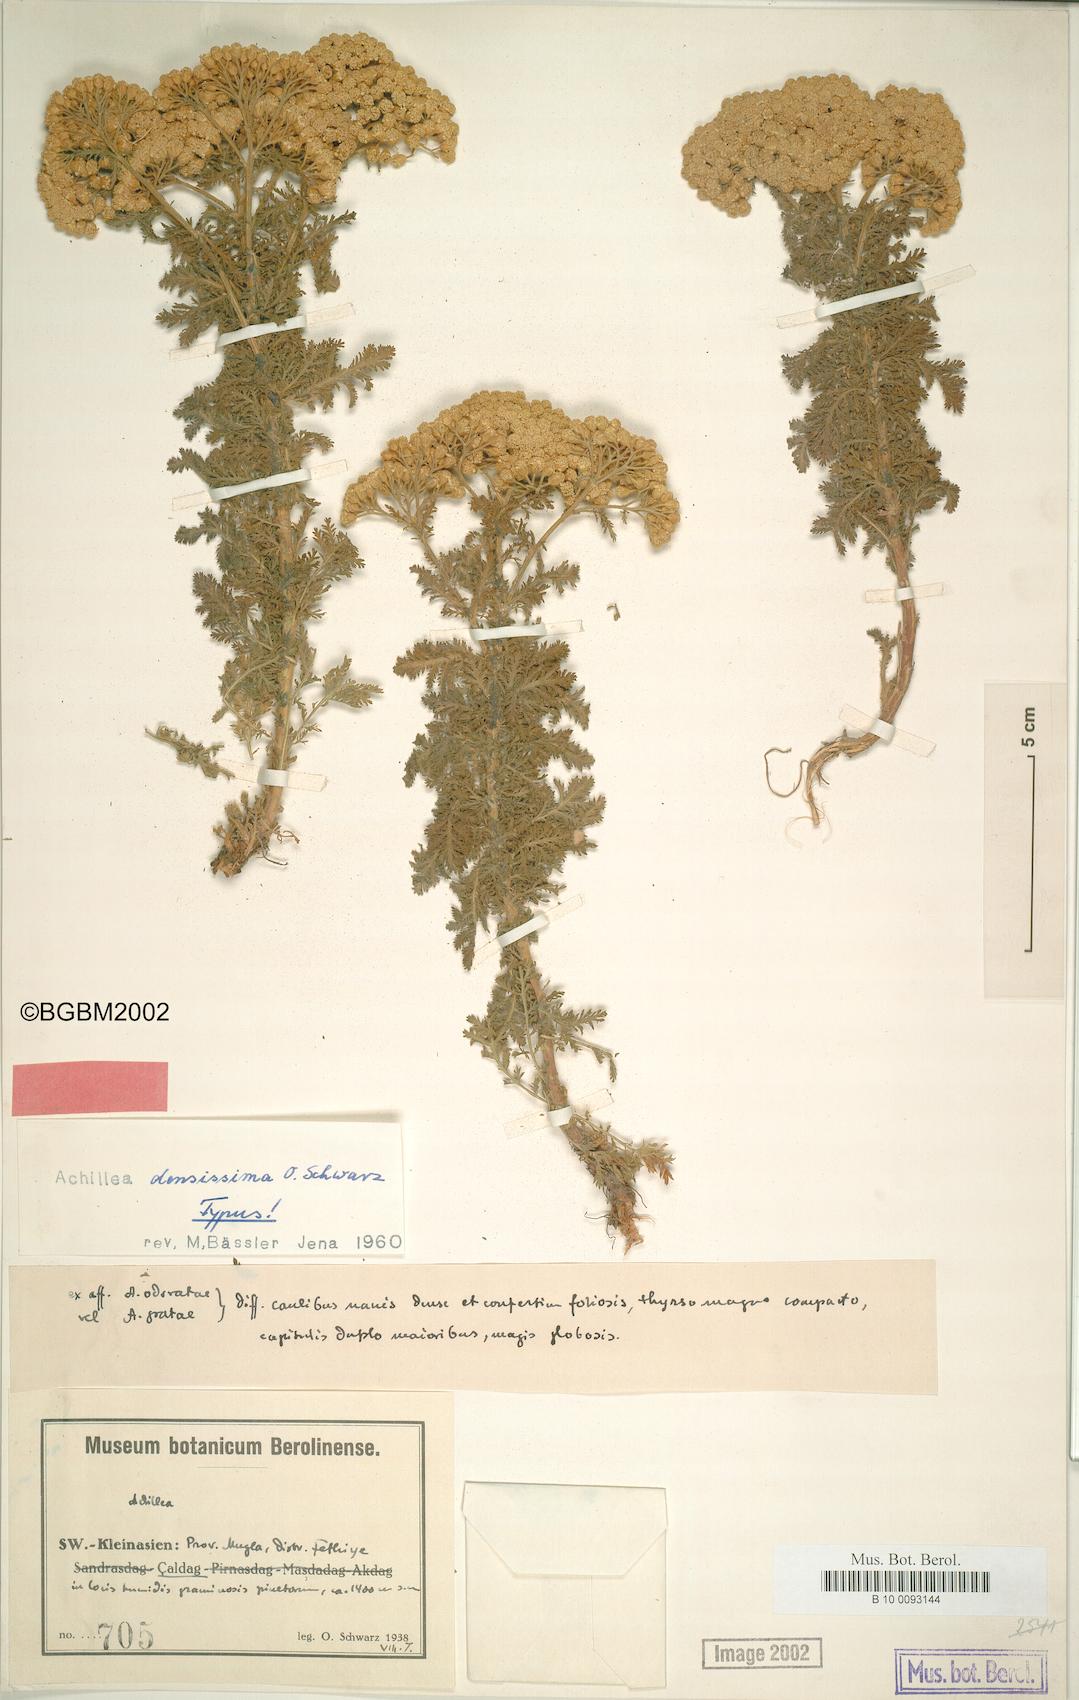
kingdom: Plantae
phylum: Tracheophyta
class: Magnoliopsida
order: Asterales
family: Asteraceae
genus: Achillea
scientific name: Achillea nobilis
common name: Noble yarrow
